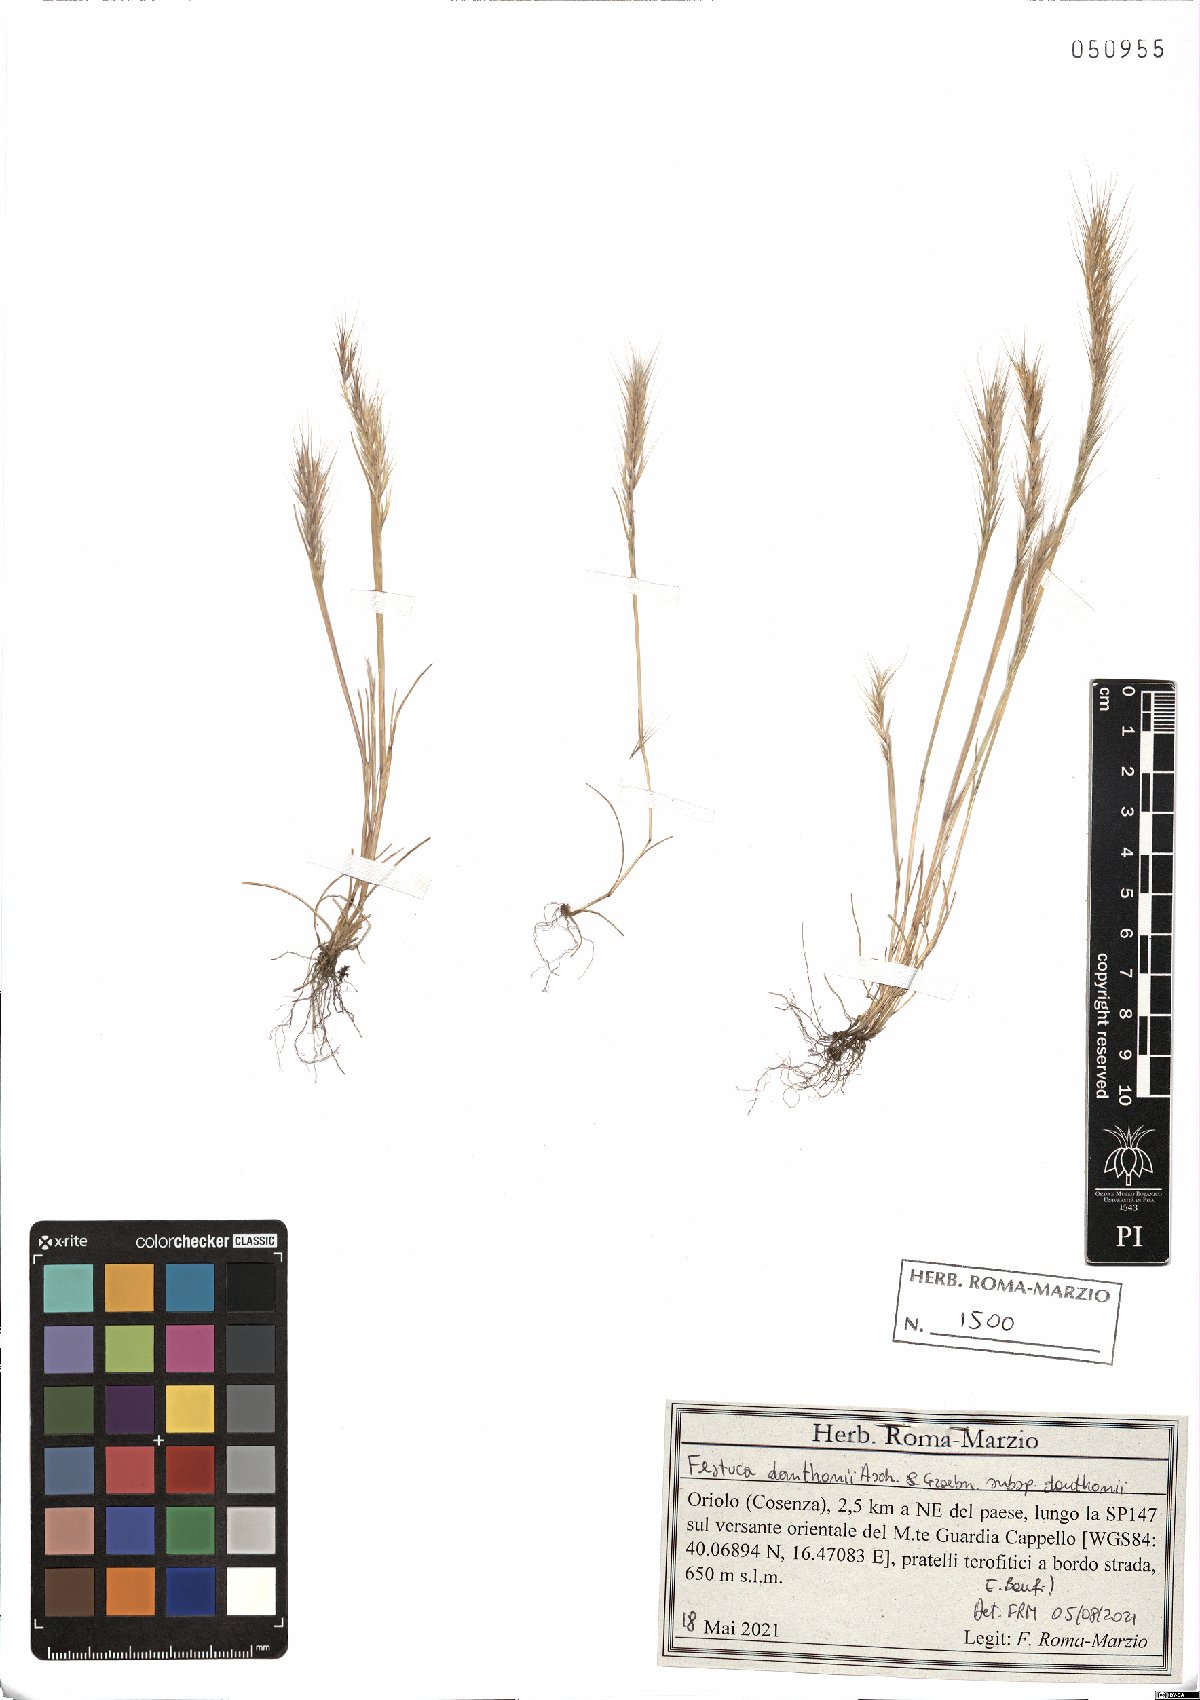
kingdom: Plantae
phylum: Tracheophyta
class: Liliopsida
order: Poales
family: Poaceae
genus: Festuca
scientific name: Festuca ambigua
